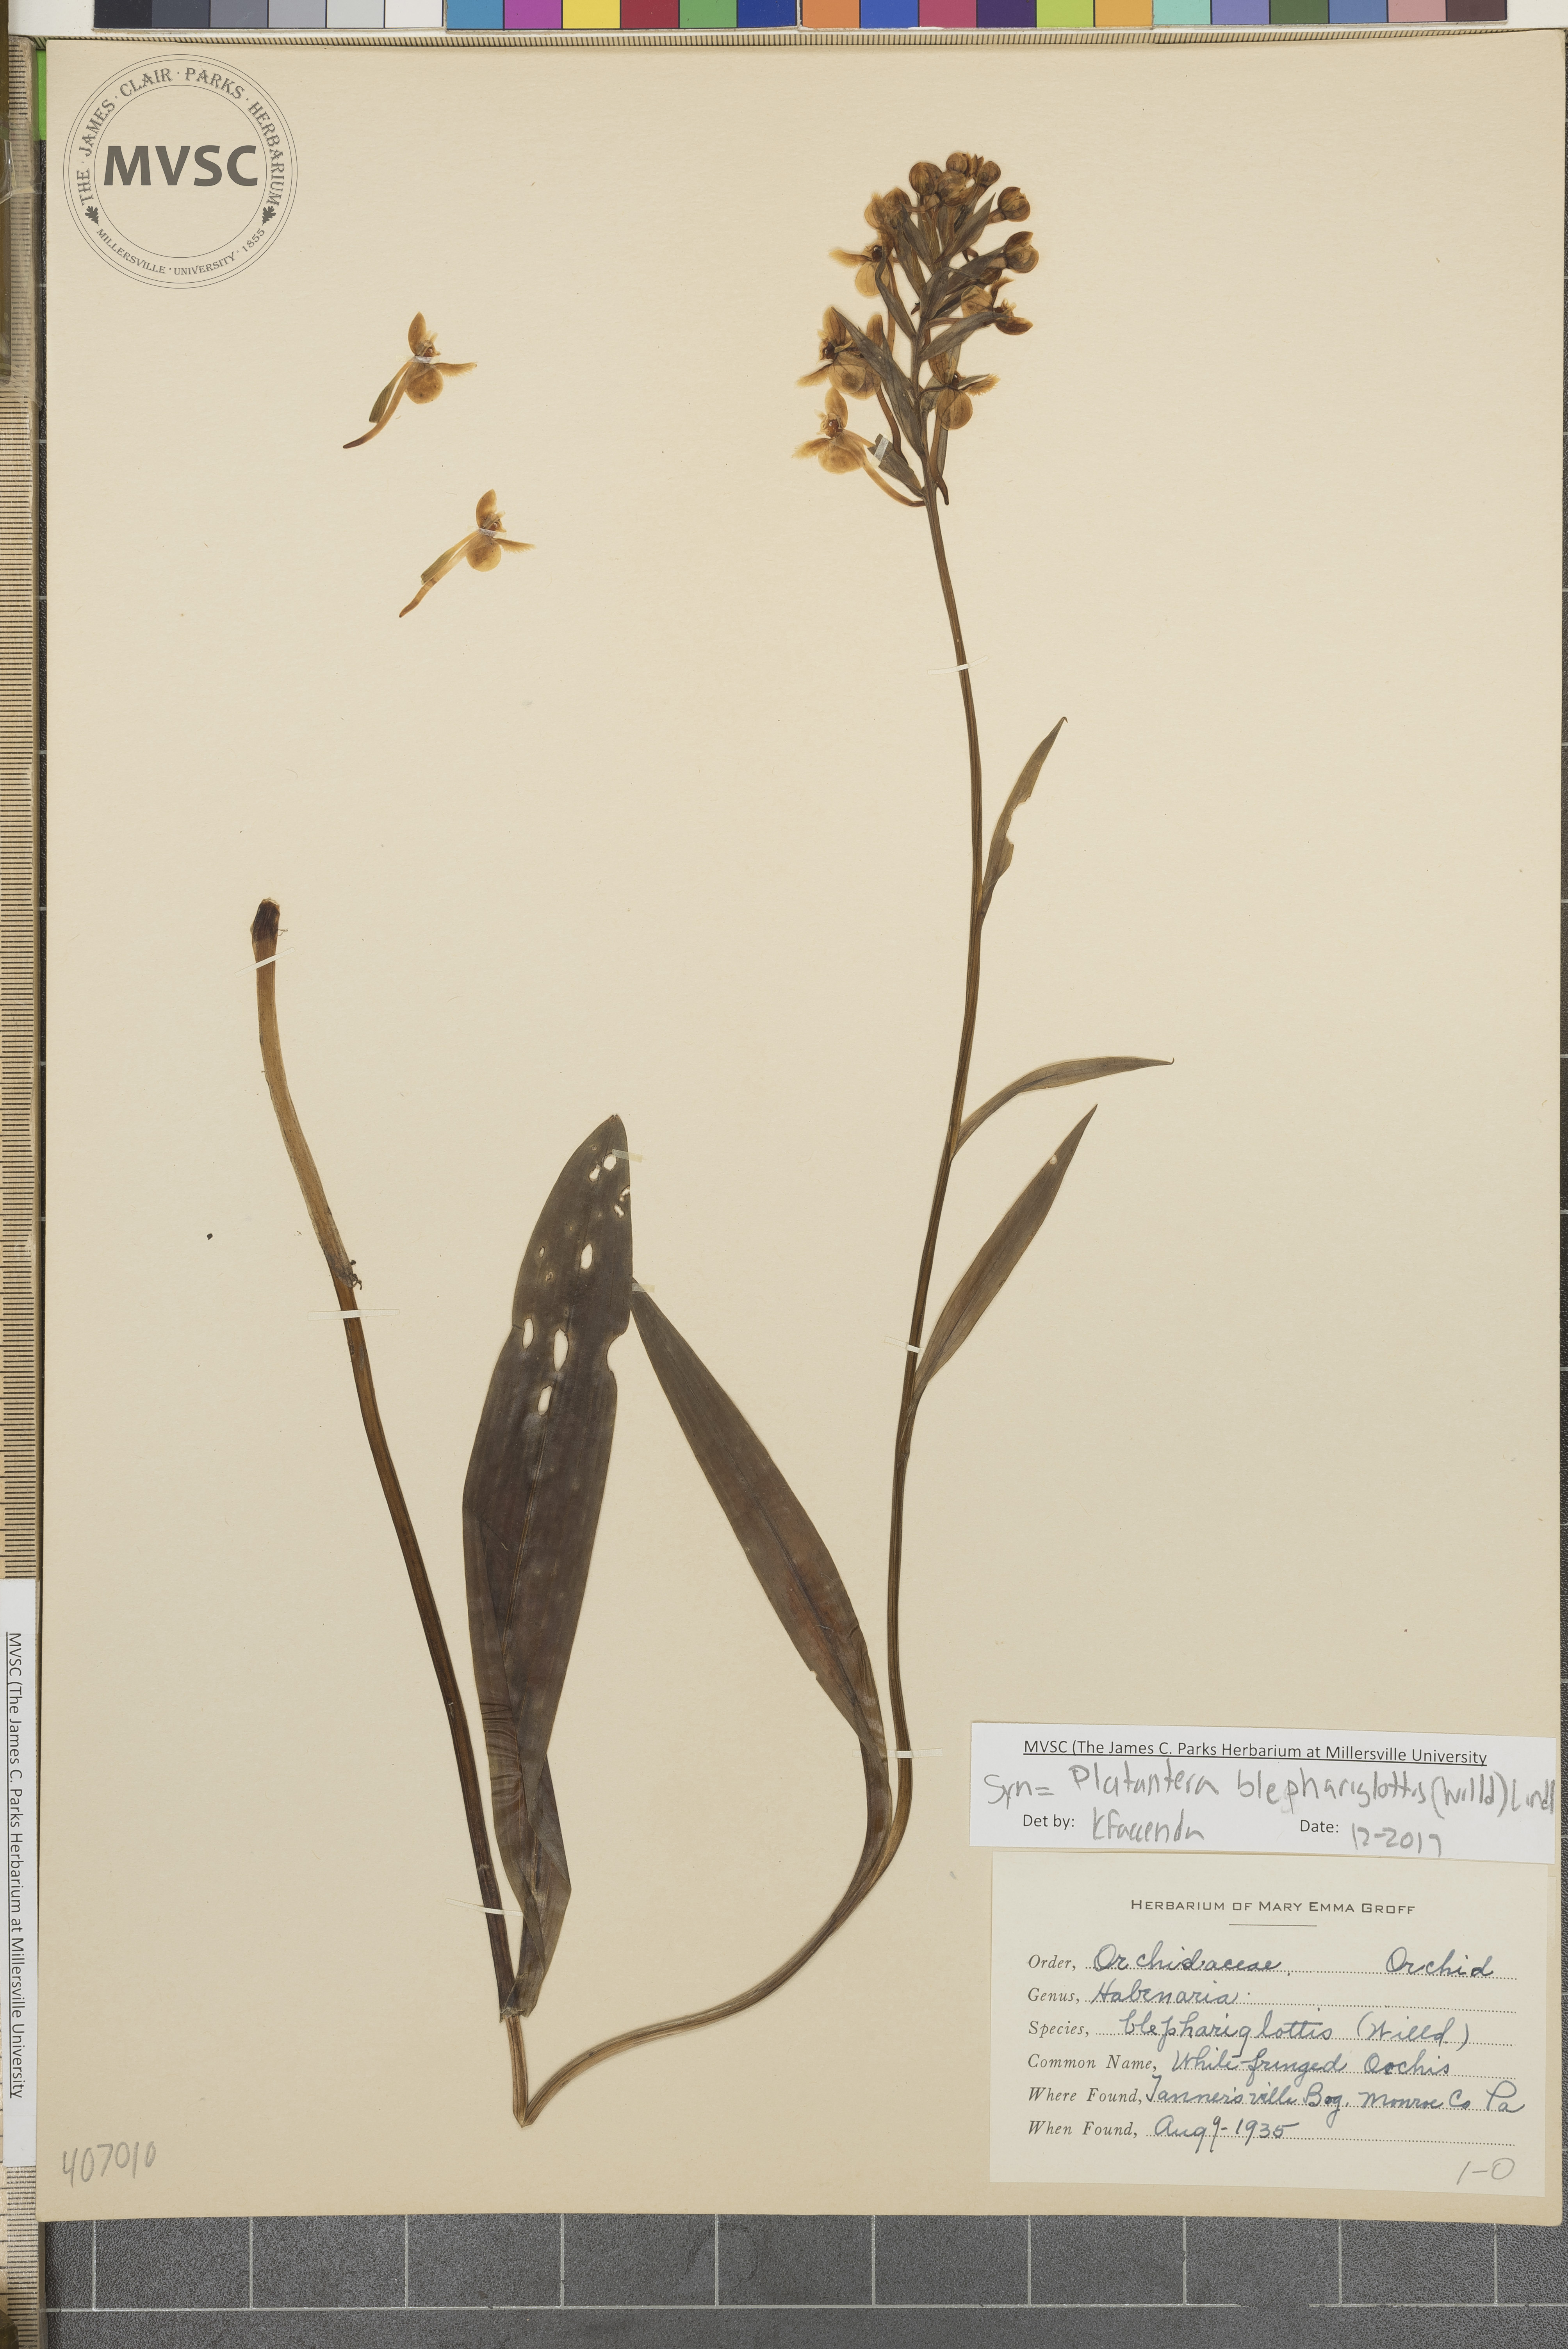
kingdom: Plantae
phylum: Tracheophyta
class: Liliopsida
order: Asparagales
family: Orchidaceae
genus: Platanthera
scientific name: Platanthera blephariglottis
